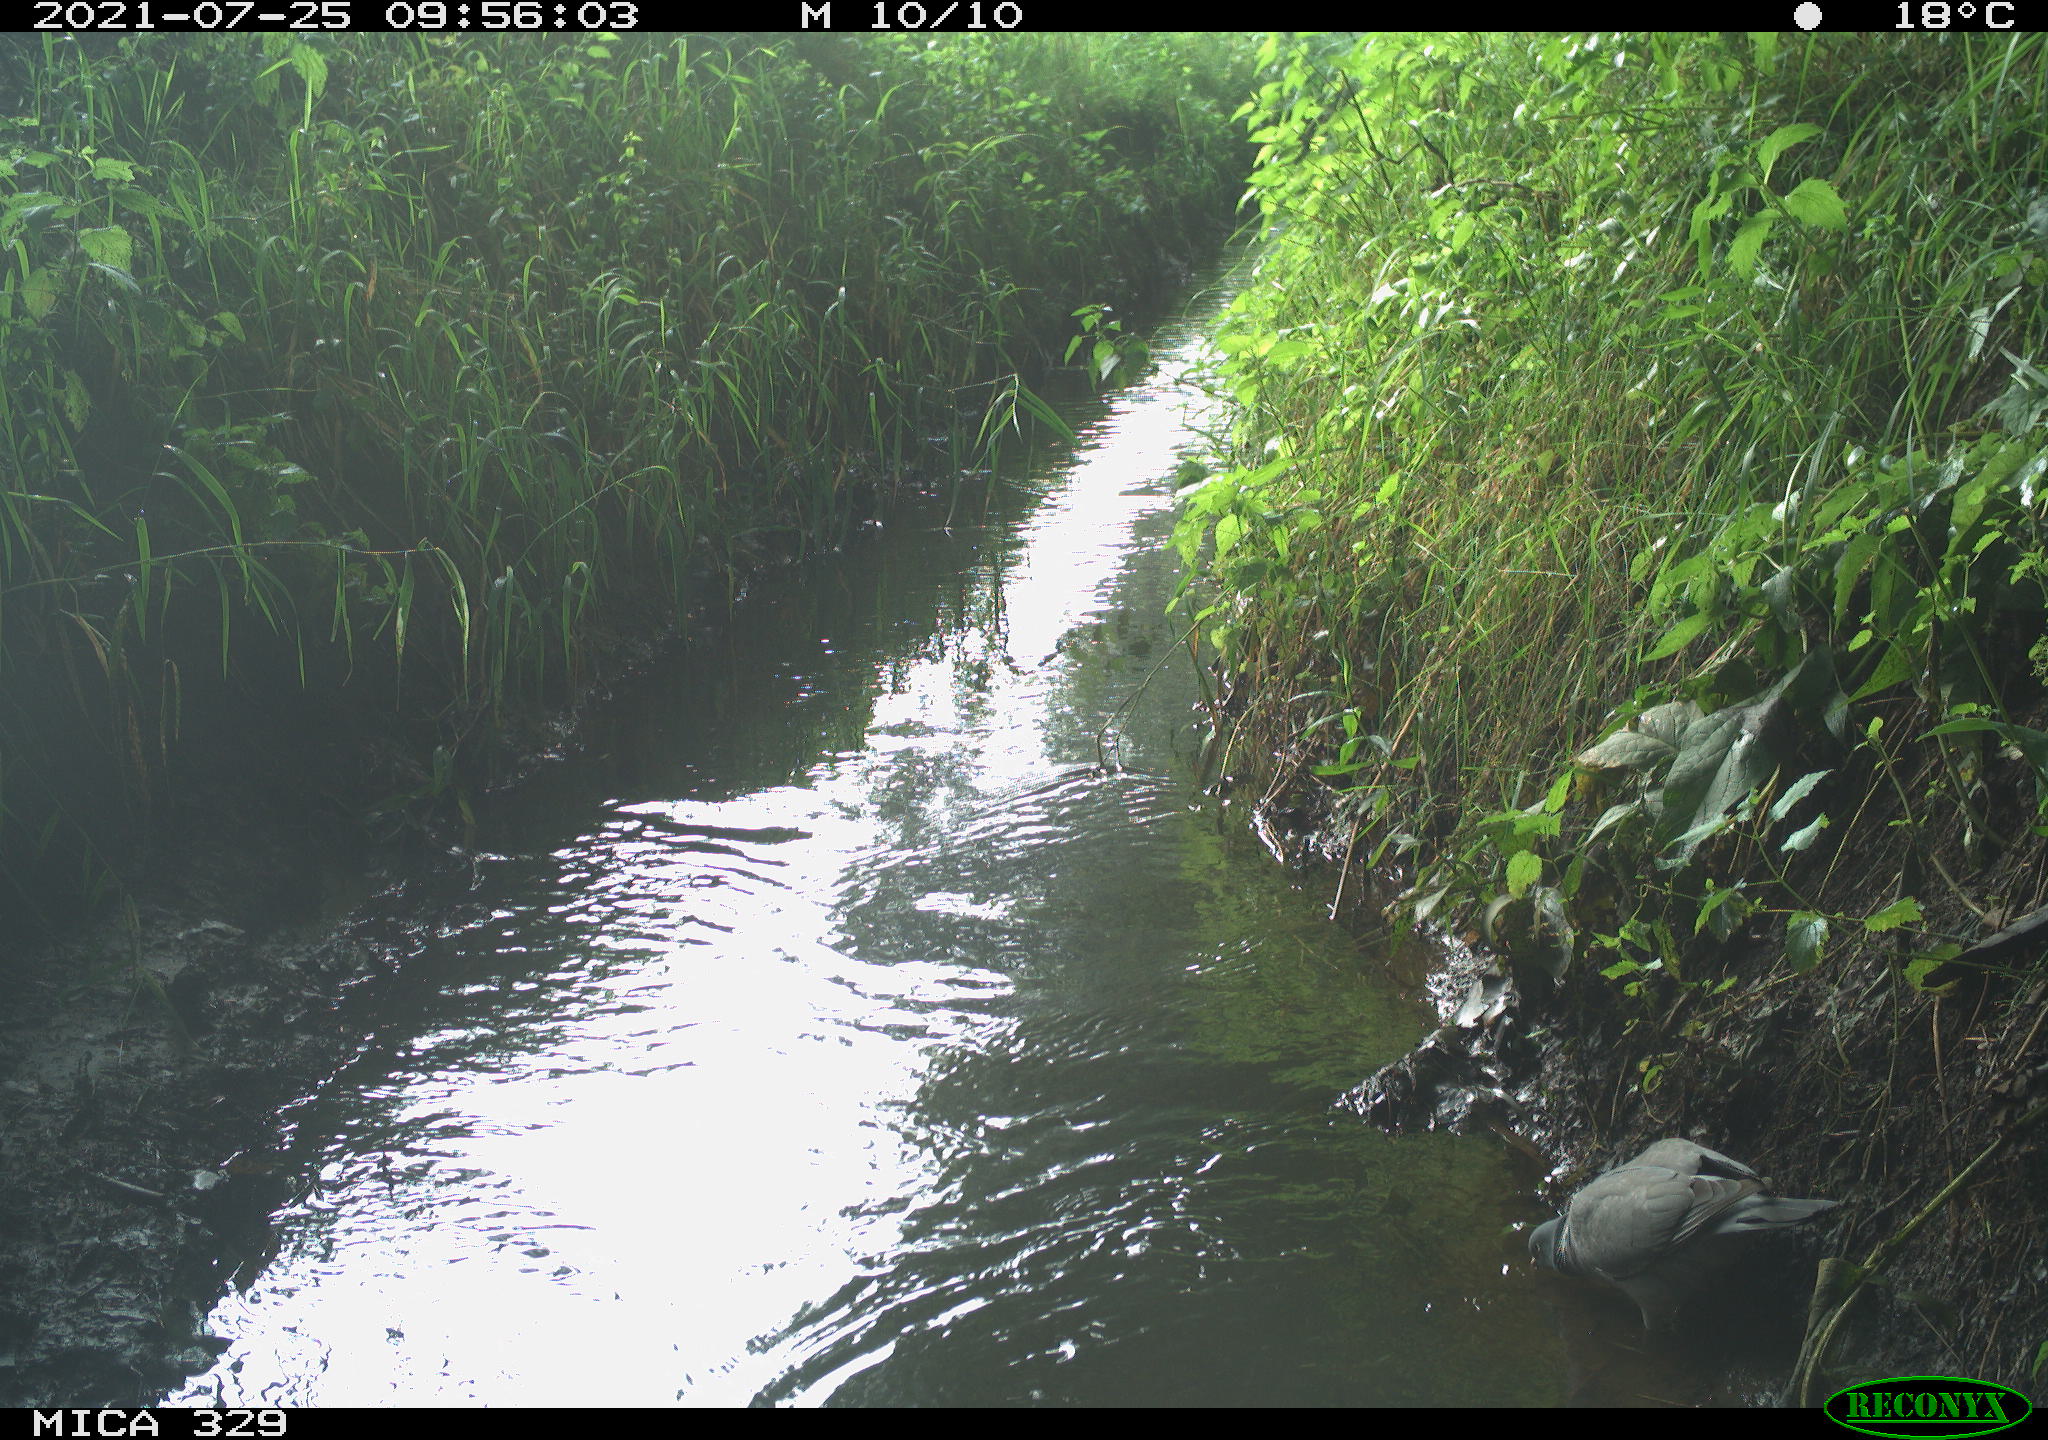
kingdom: Animalia
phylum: Chordata
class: Aves
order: Columbiformes
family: Columbidae
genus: Columba
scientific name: Columba palumbus
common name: Common wood pigeon
